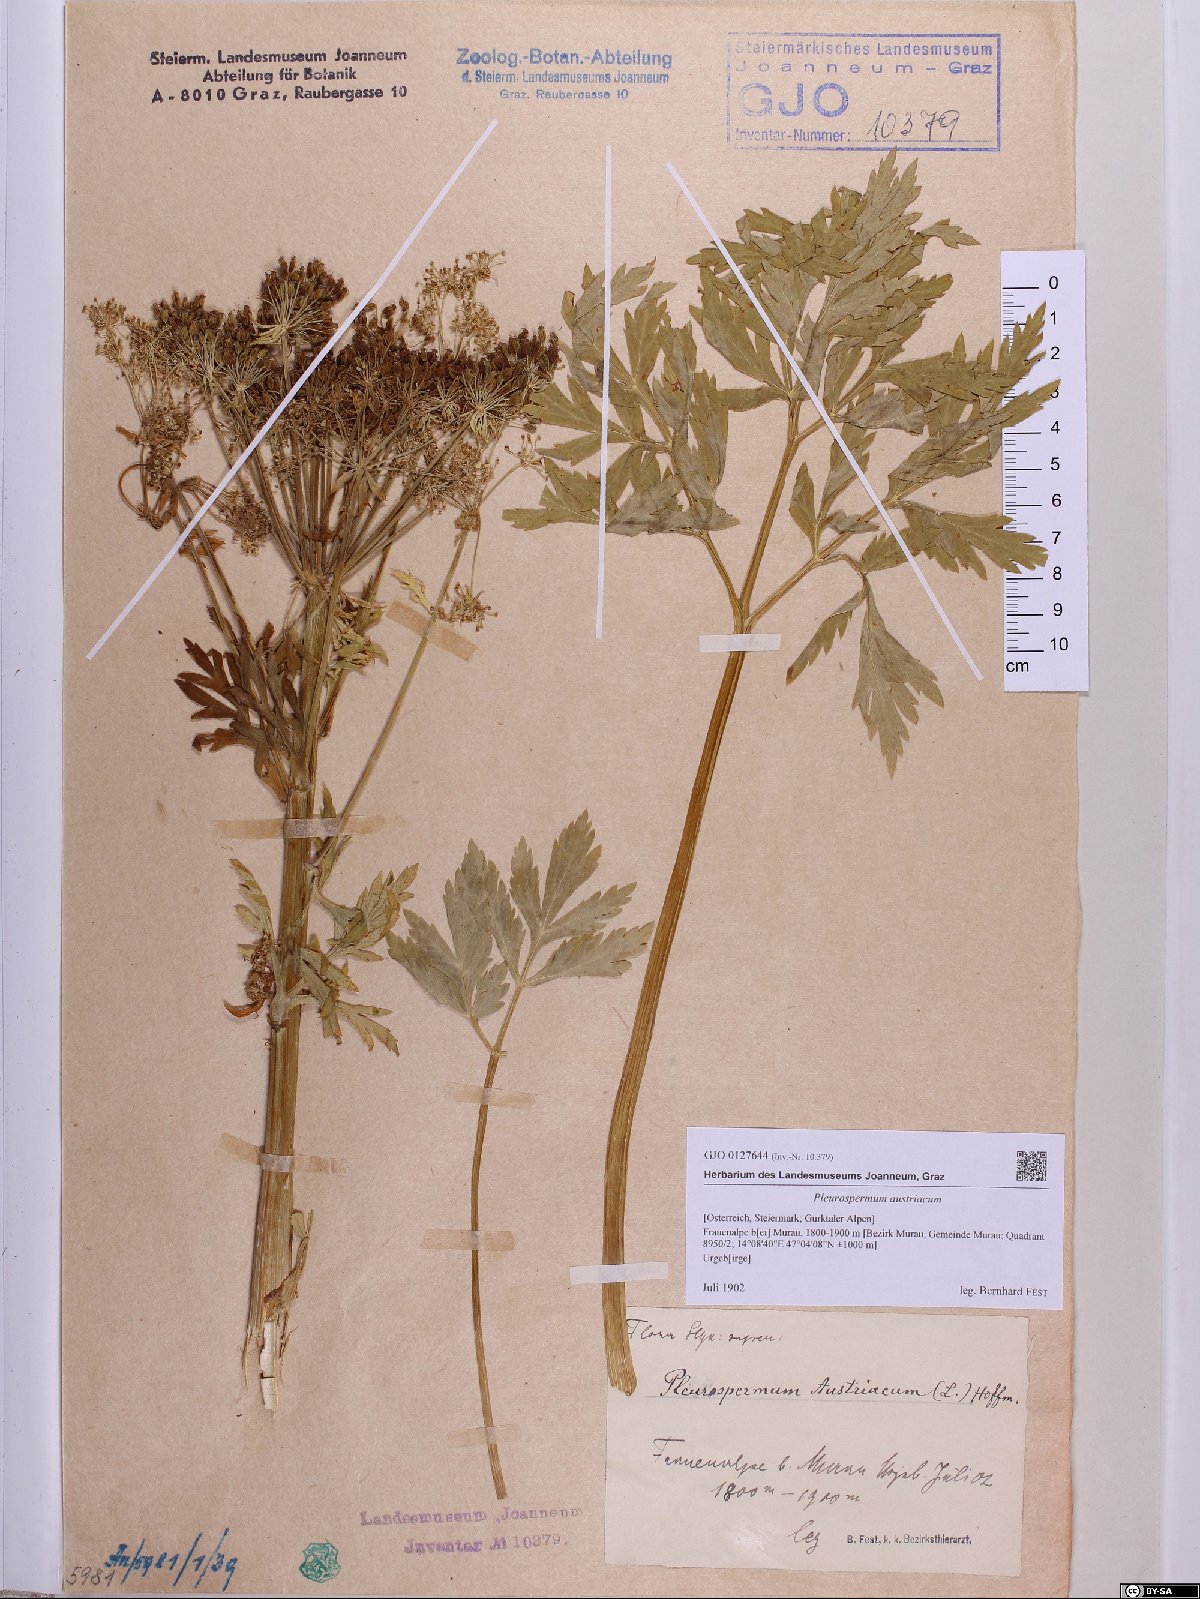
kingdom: Plantae
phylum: Tracheophyta
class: Magnoliopsida
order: Apiales
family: Apiaceae
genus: Pleurospermum
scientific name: Pleurospermum austriacum
